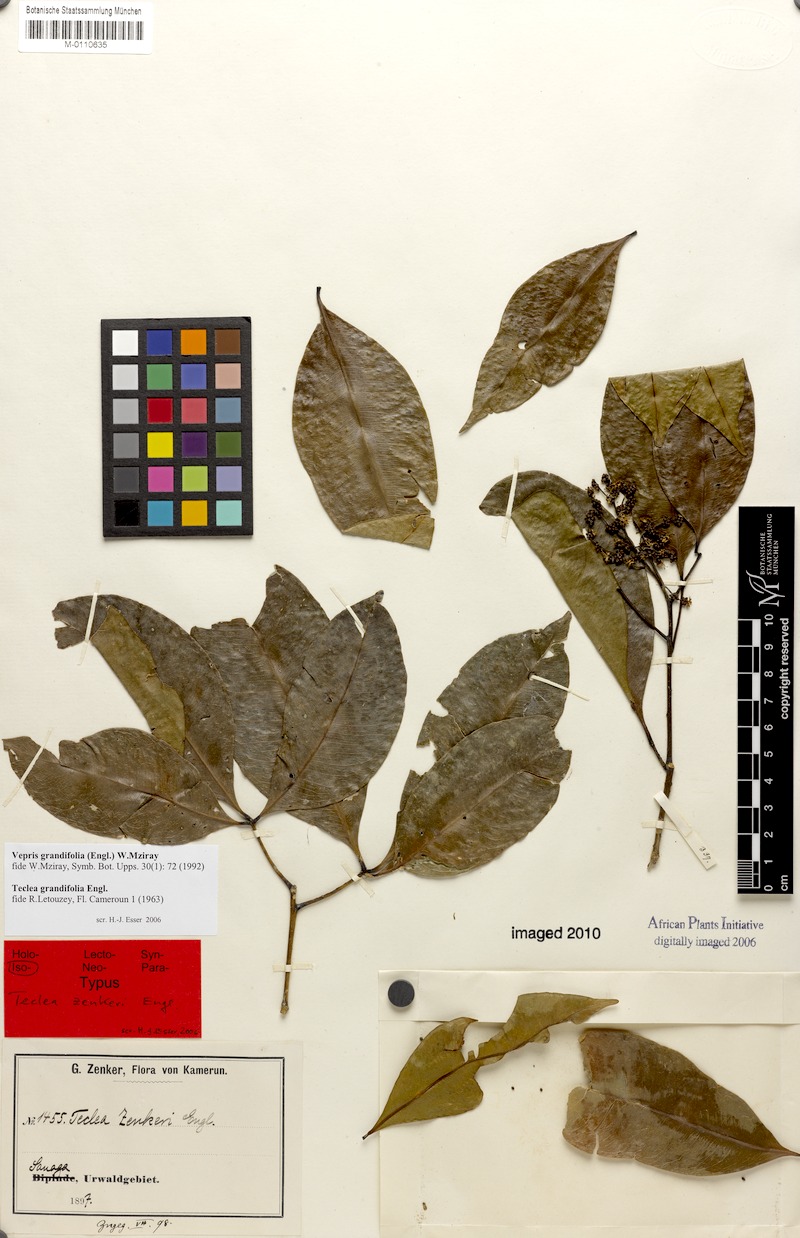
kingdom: Plantae
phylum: Tracheophyta
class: Magnoliopsida
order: Sapindales
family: Rutaceae
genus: Vepris
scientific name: Vepris grandifolia
